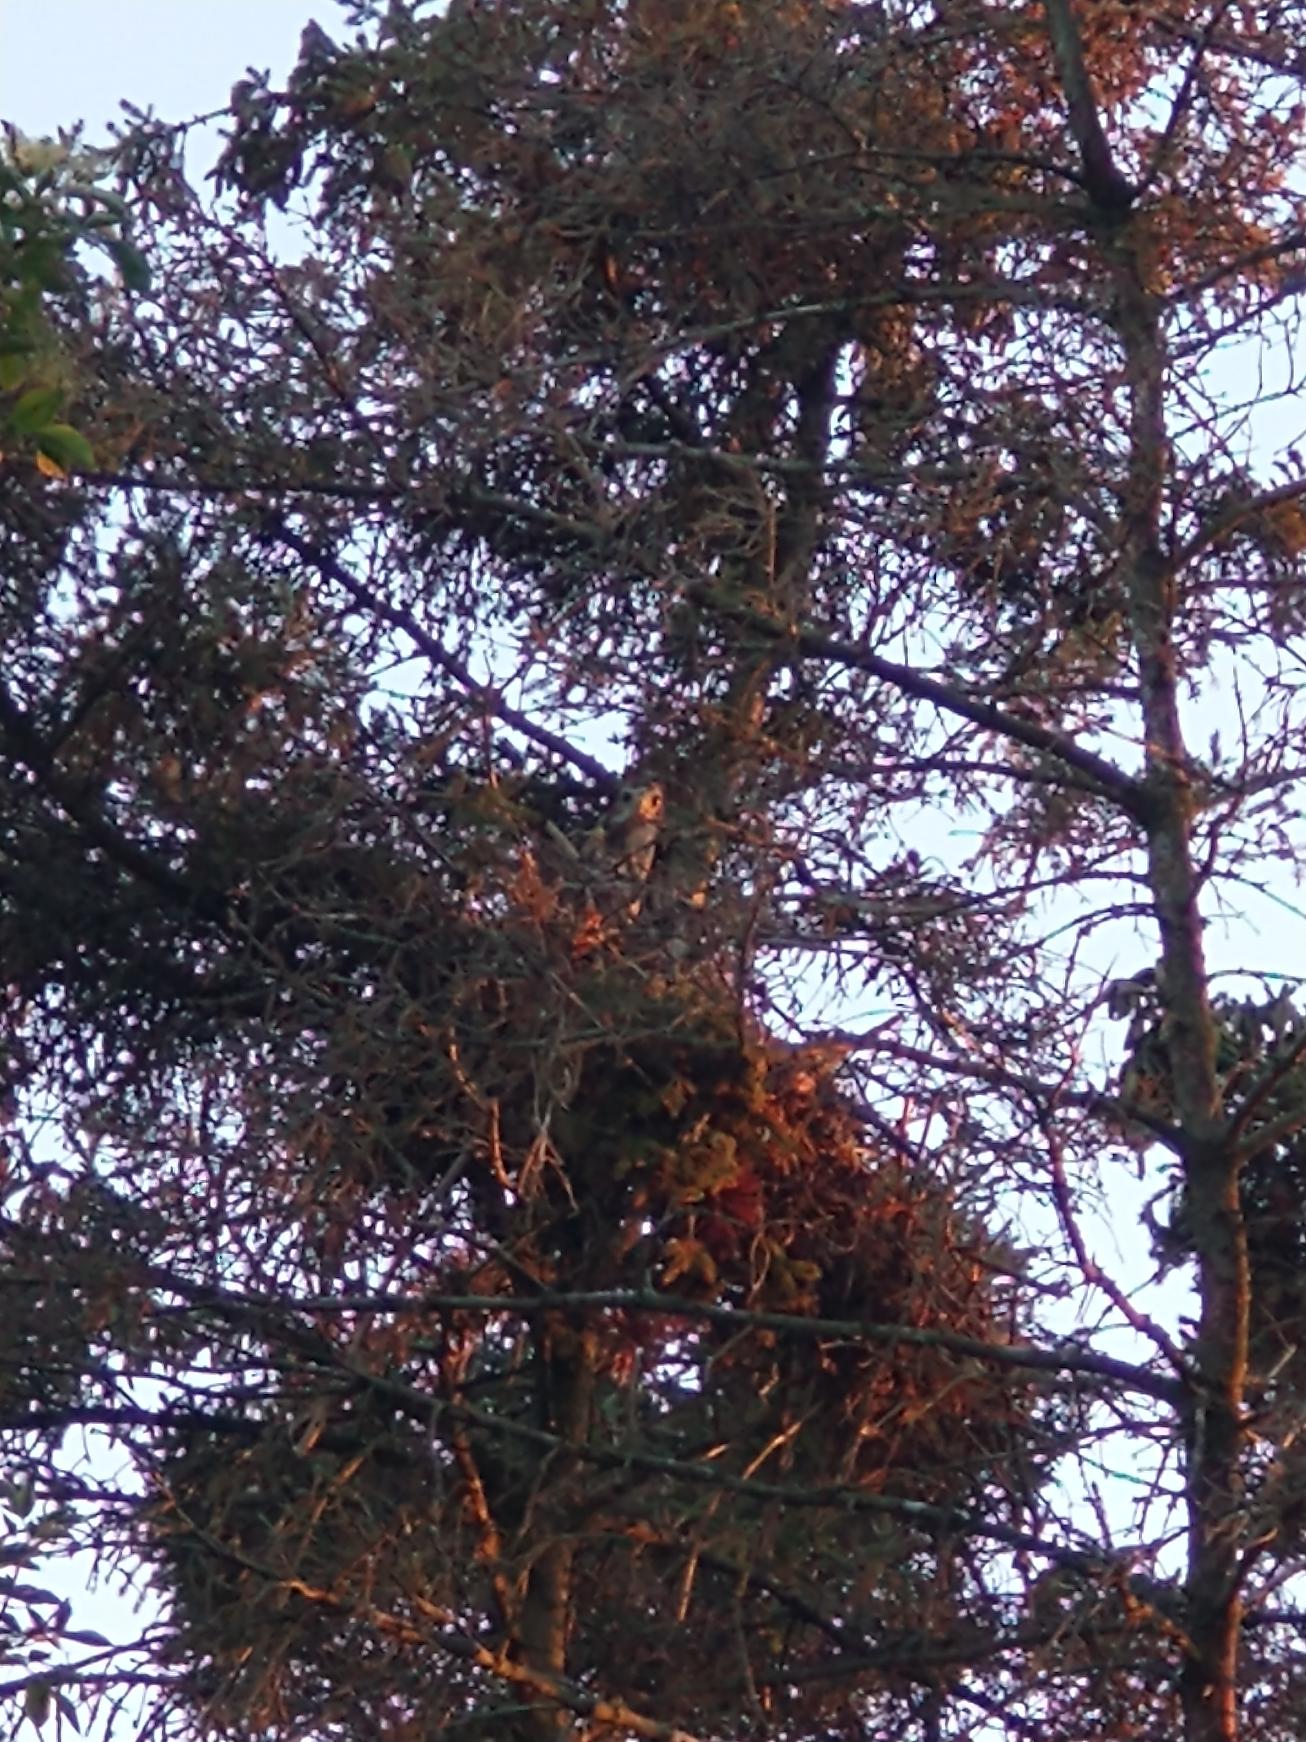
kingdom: Animalia
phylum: Chordata
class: Aves
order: Accipitriformes
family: Accipitridae
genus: Buteo
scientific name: Buteo buteo
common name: Musvåge
